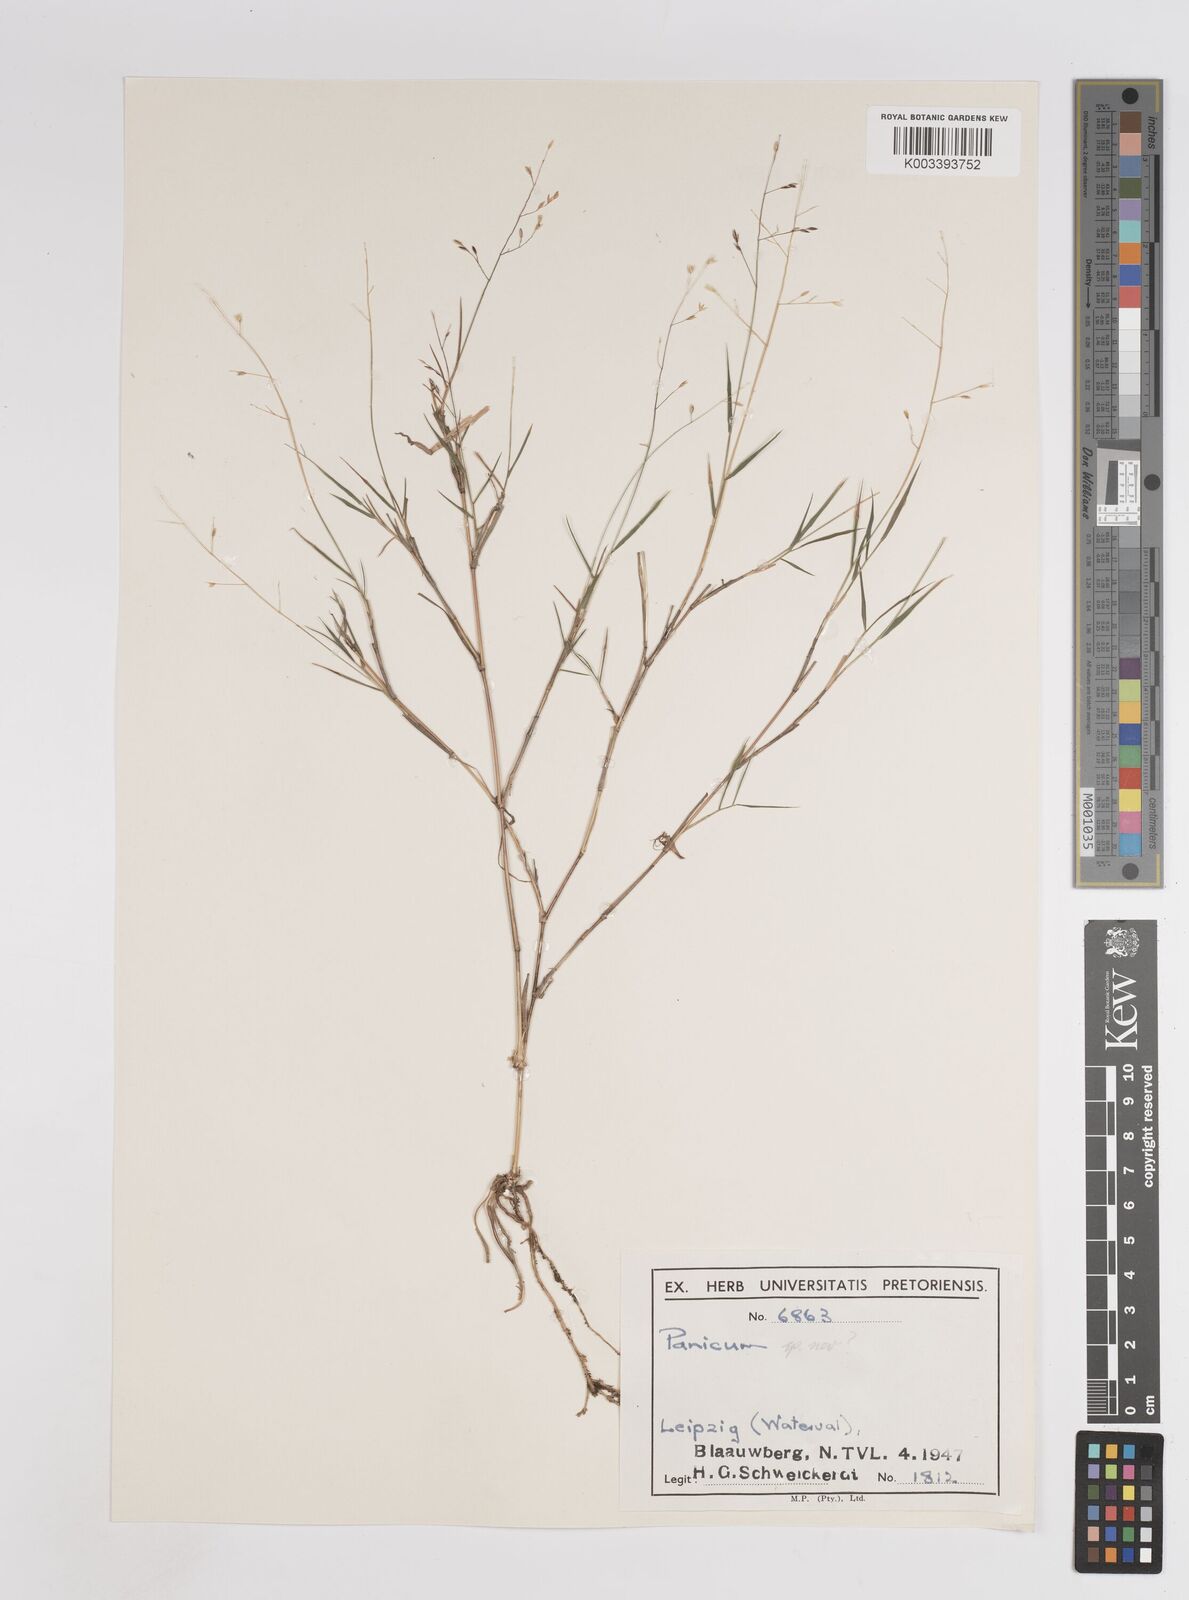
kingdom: Plantae
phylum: Tracheophyta
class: Liliopsida
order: Poales
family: Poaceae
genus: Panicum
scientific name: Panicum dewinteri
